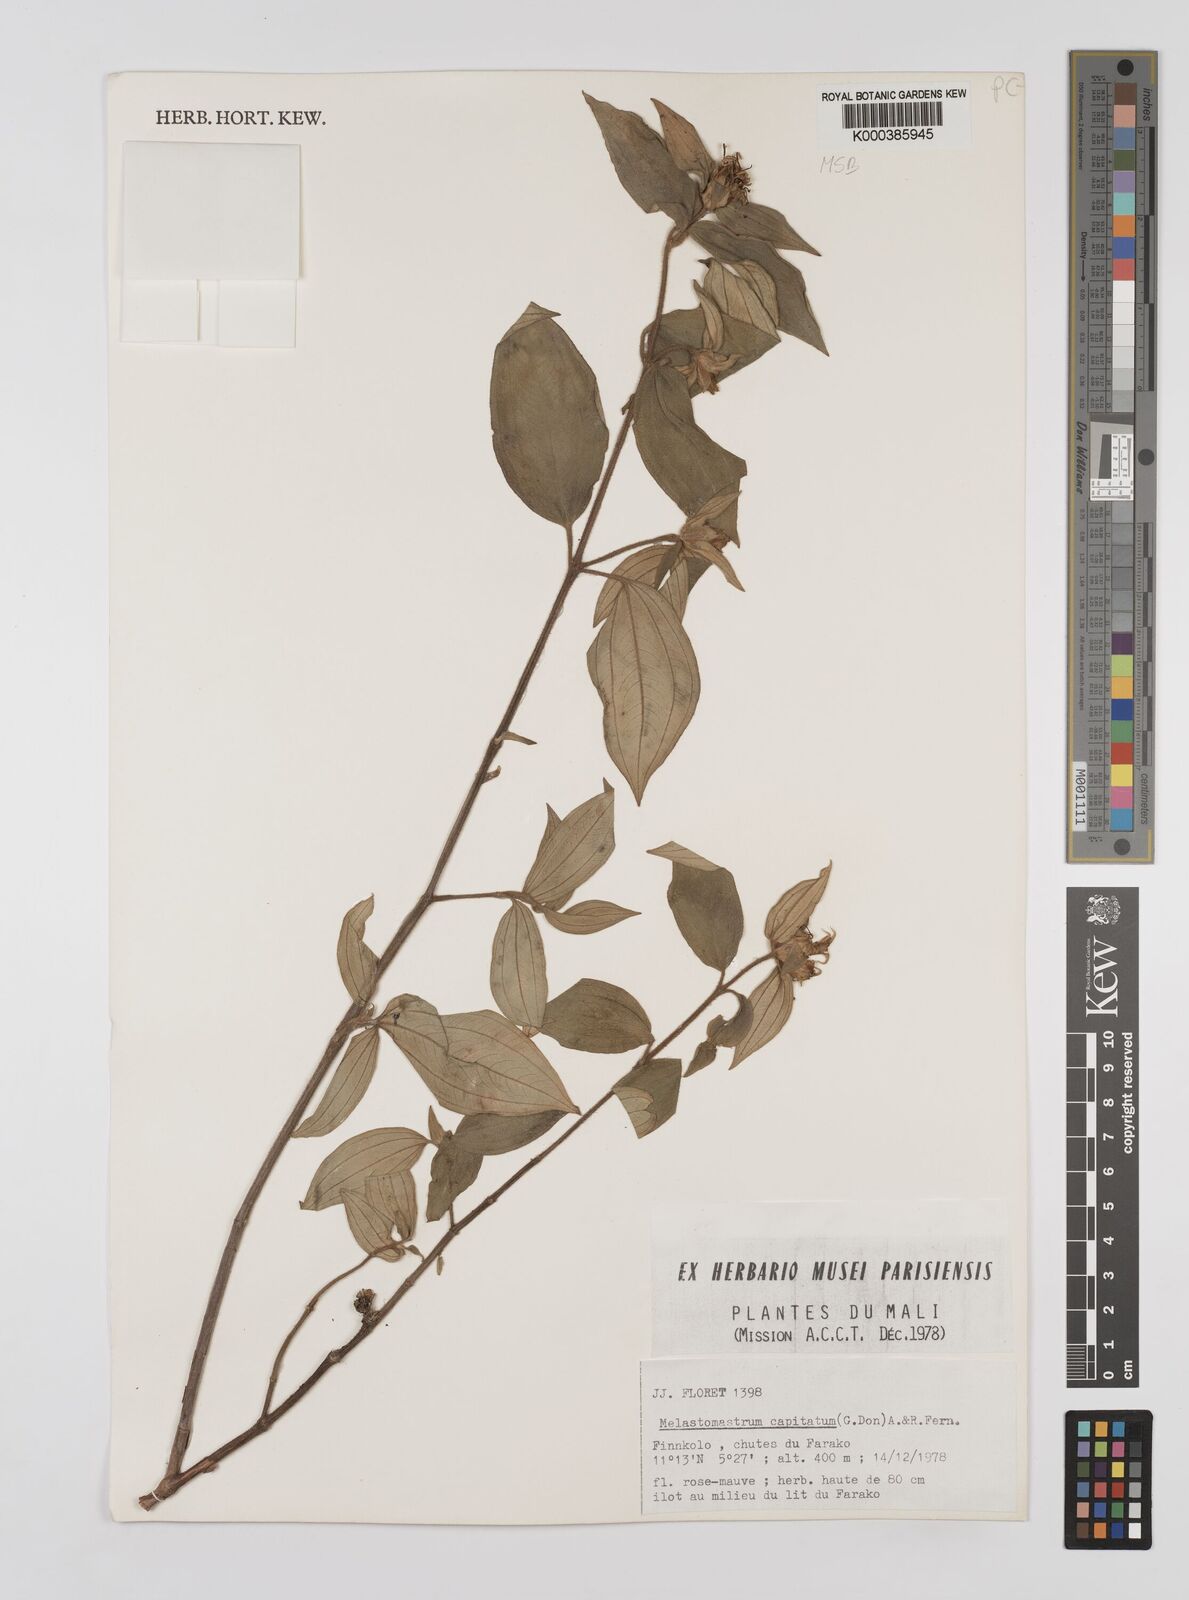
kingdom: Plantae
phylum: Tracheophyta
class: Magnoliopsida
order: Myrtales
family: Melastomataceae
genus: Melastomastrum
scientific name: Melastomastrum capitatum
